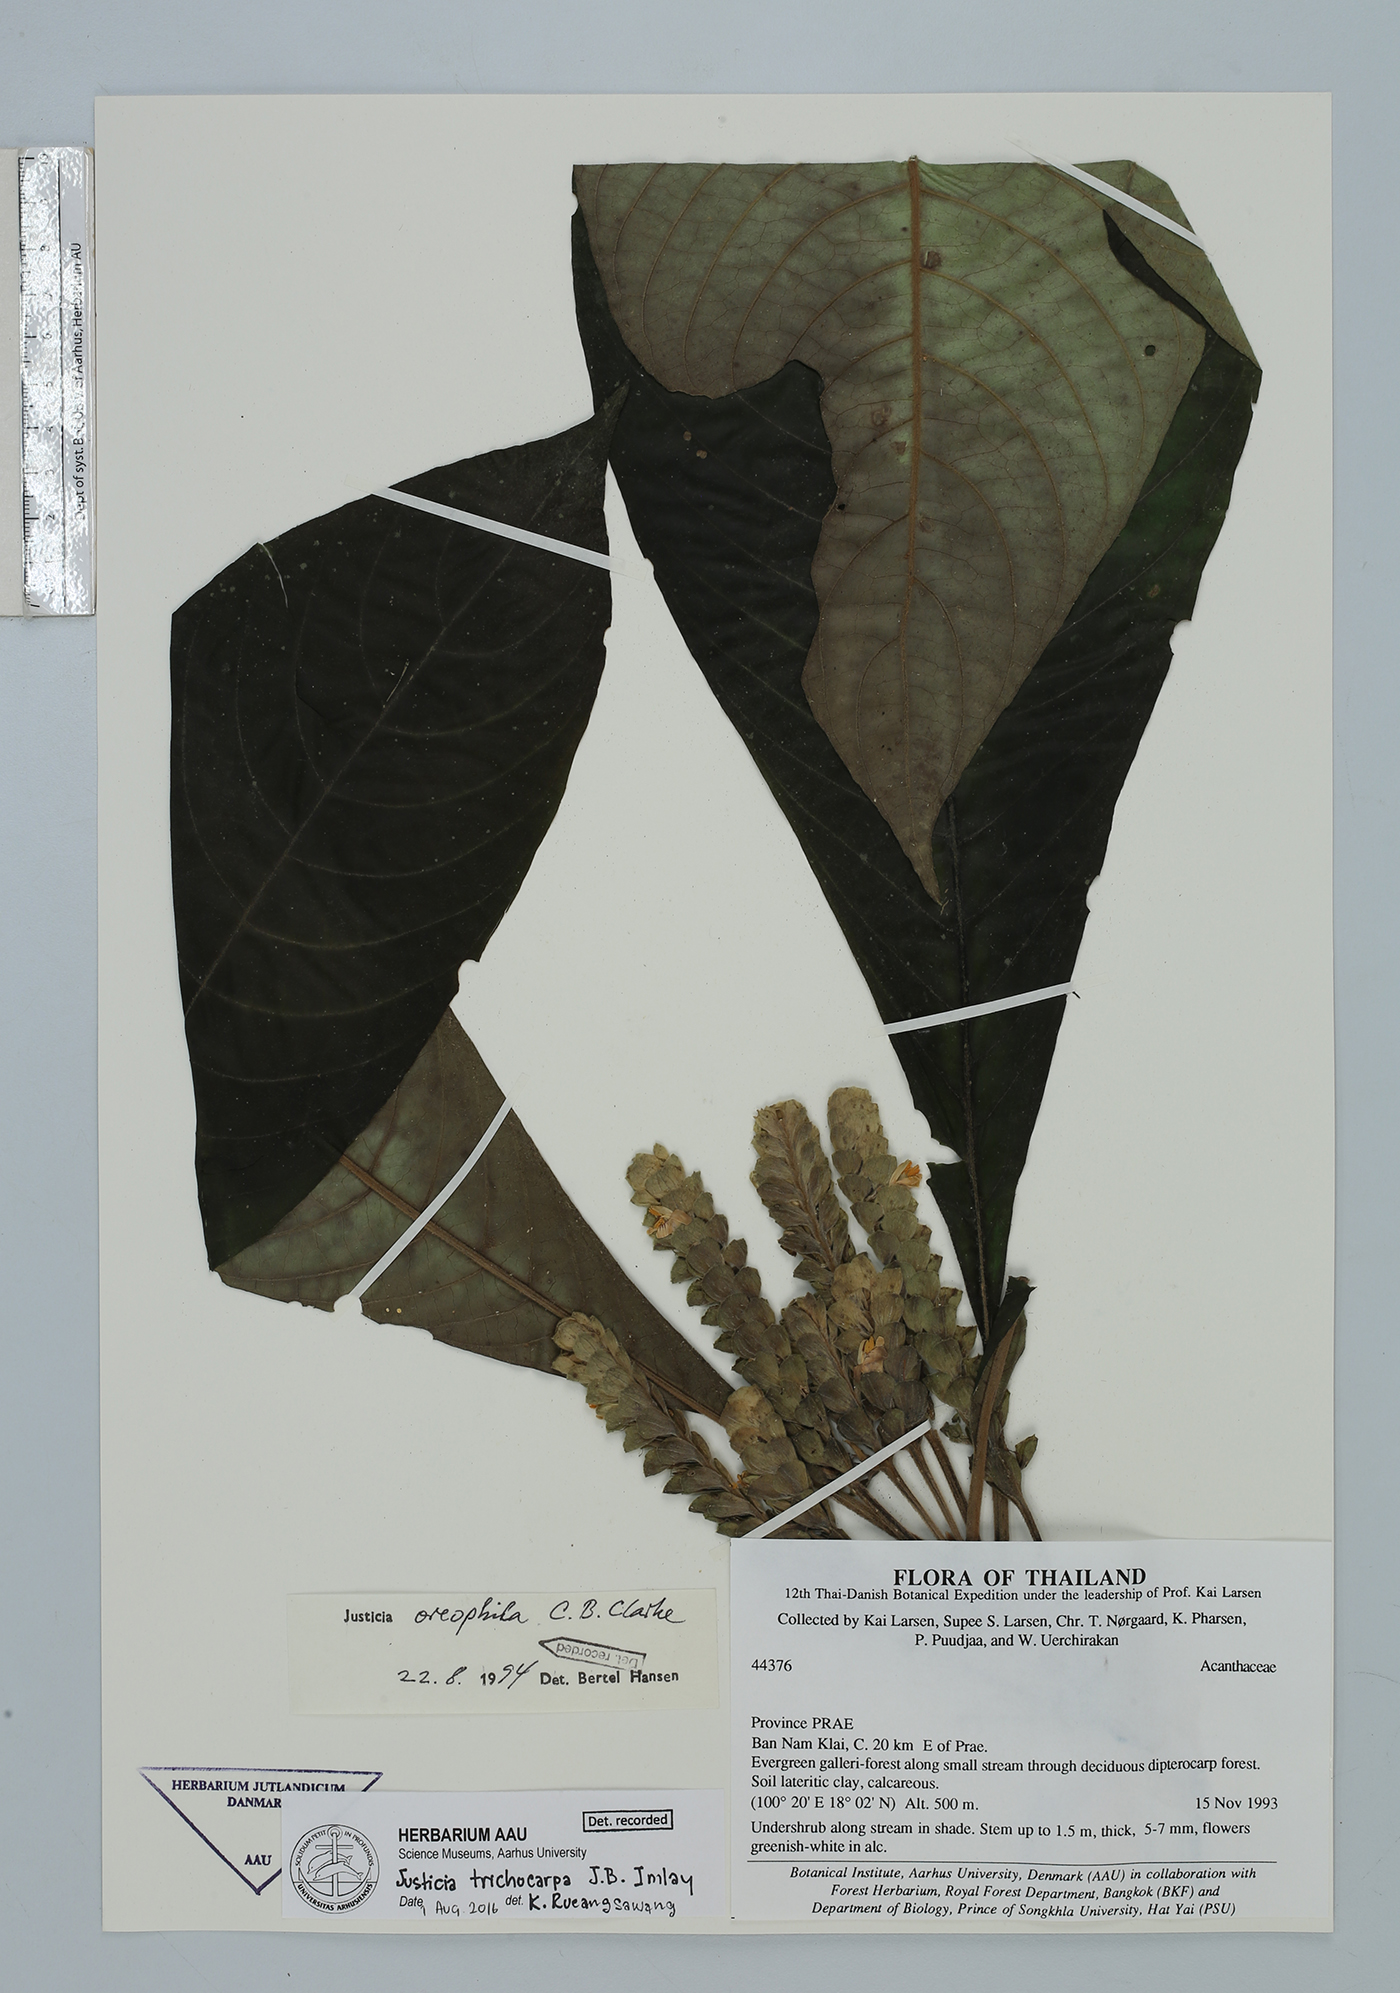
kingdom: Plantae
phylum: Tracheophyta
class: Magnoliopsida
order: Lamiales
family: Acanthaceae
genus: Justicia
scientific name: Justicia trichocarpa
